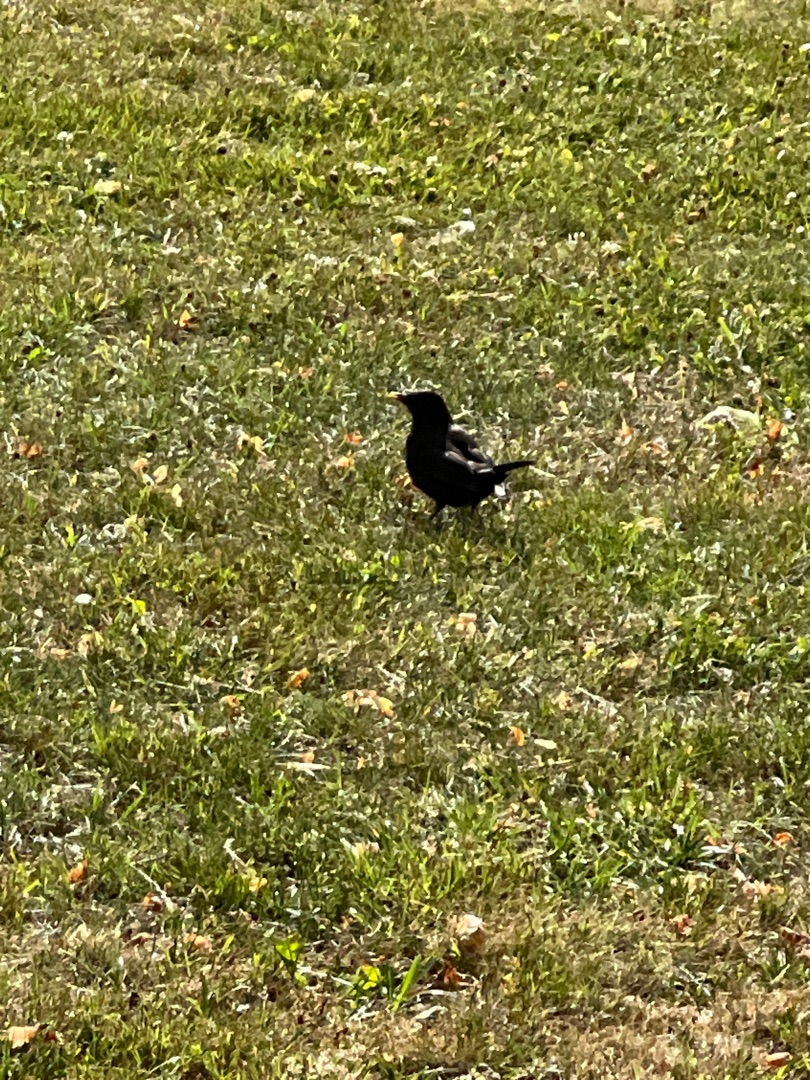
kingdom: Animalia
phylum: Chordata
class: Aves
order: Passeriformes
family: Turdidae
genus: Turdus
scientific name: Turdus merula
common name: Solsort
